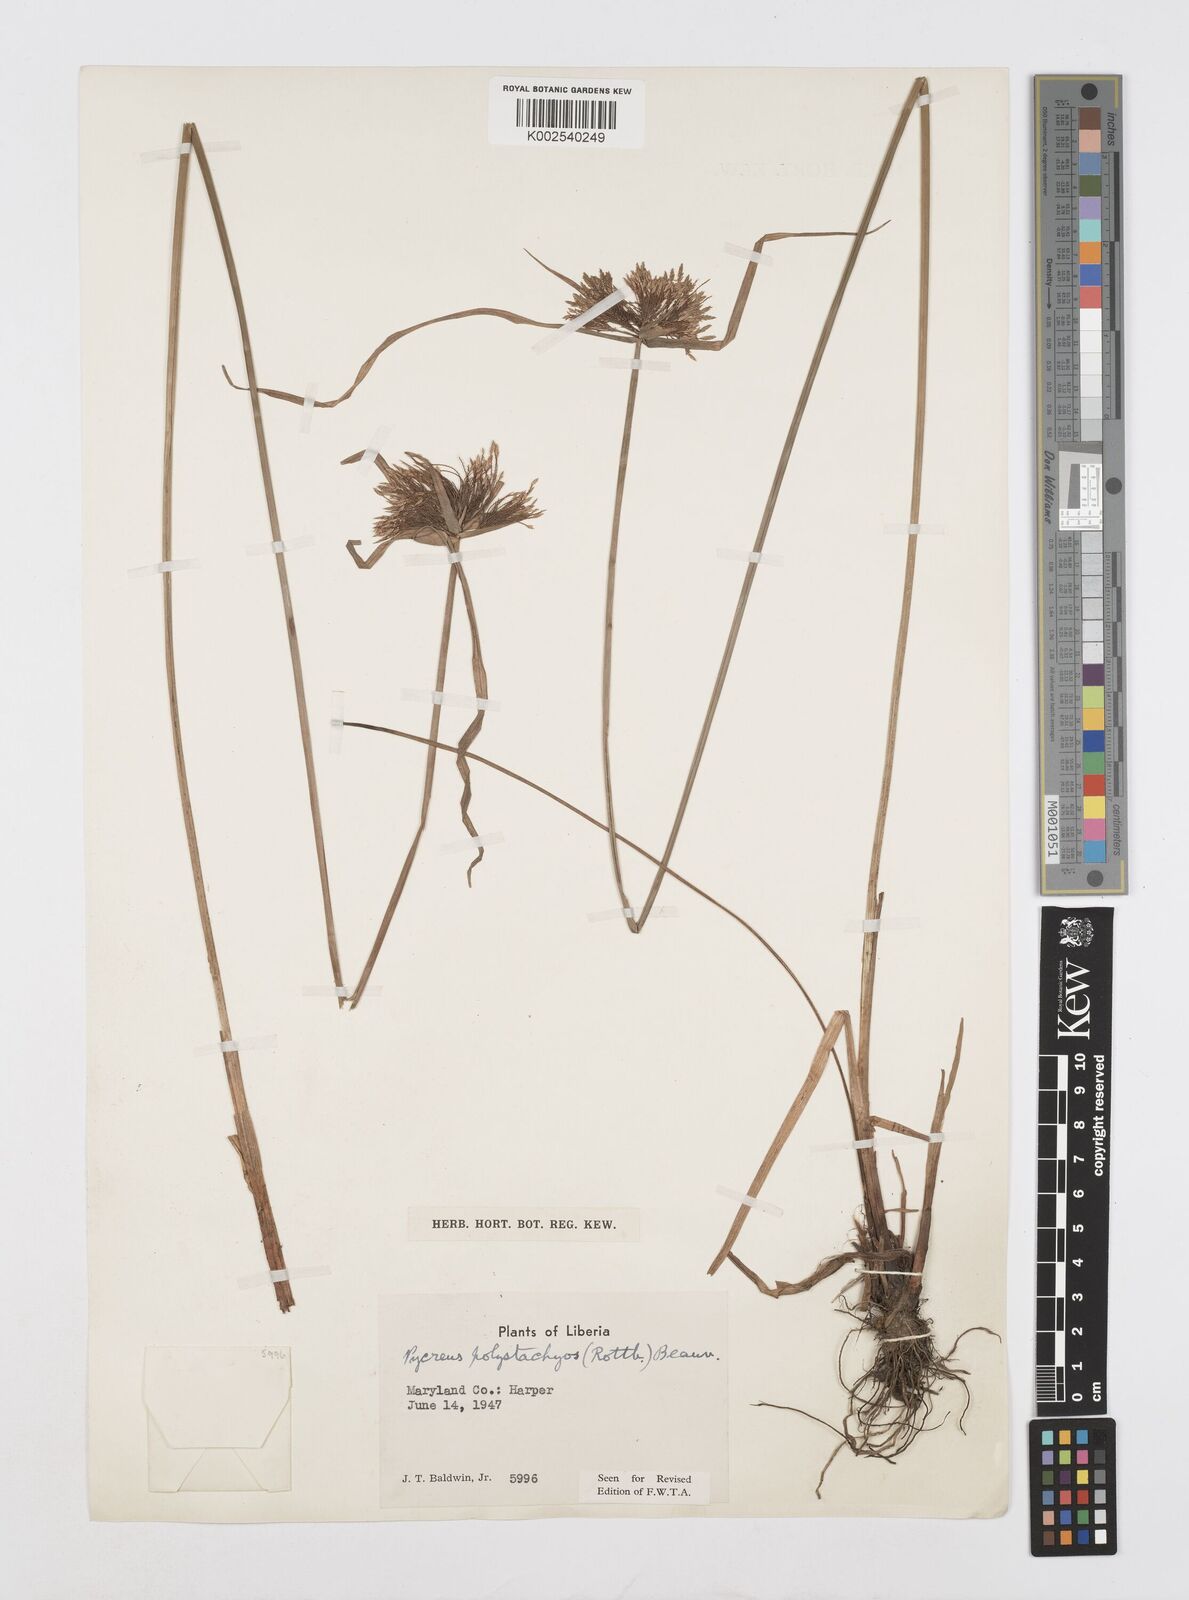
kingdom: Plantae
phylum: Tracheophyta
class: Liliopsida
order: Poales
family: Cyperaceae
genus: Cyperus
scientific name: Cyperus polystachyos
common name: Bunchy flat sedge
